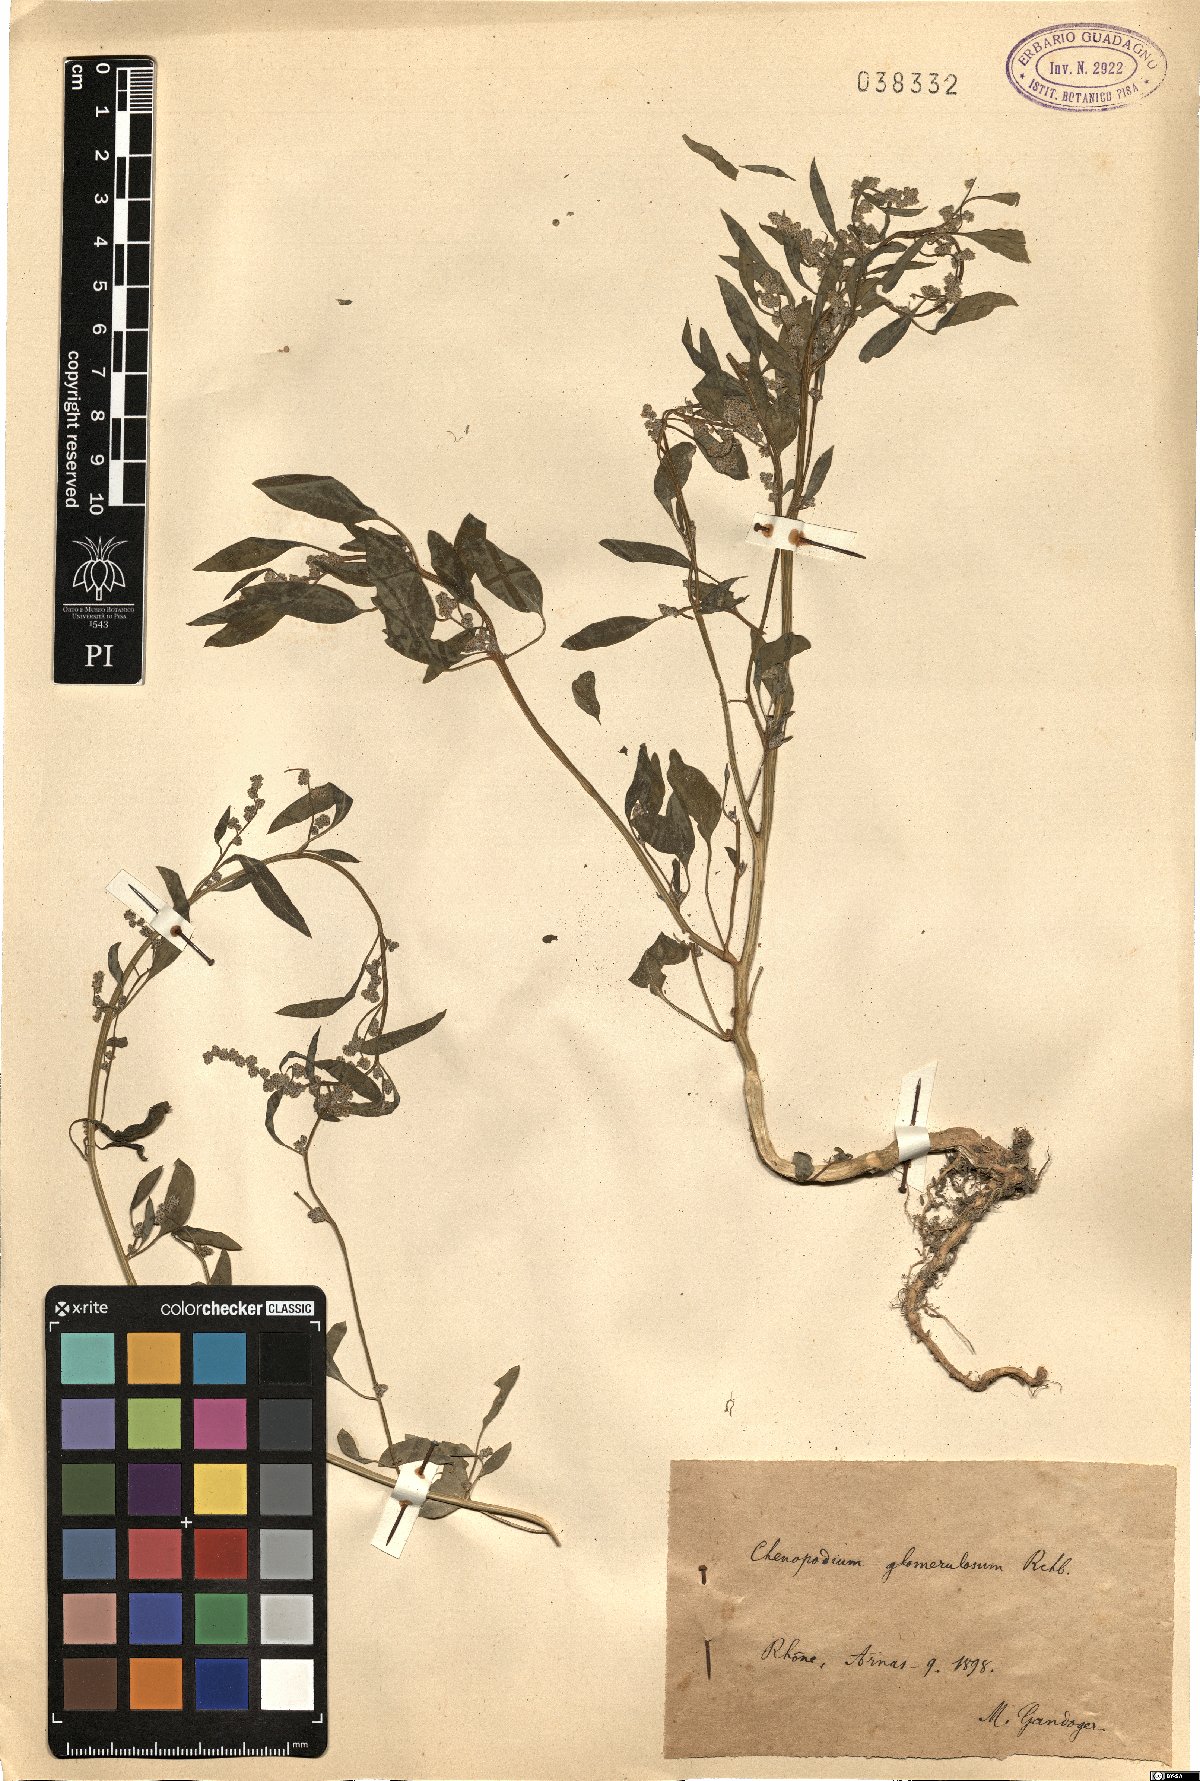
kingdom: Plantae
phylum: Tracheophyta
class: Magnoliopsida
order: Caryophyllales
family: Amaranthaceae
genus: Chenopodium
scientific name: Chenopodium album
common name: Fat-hen
